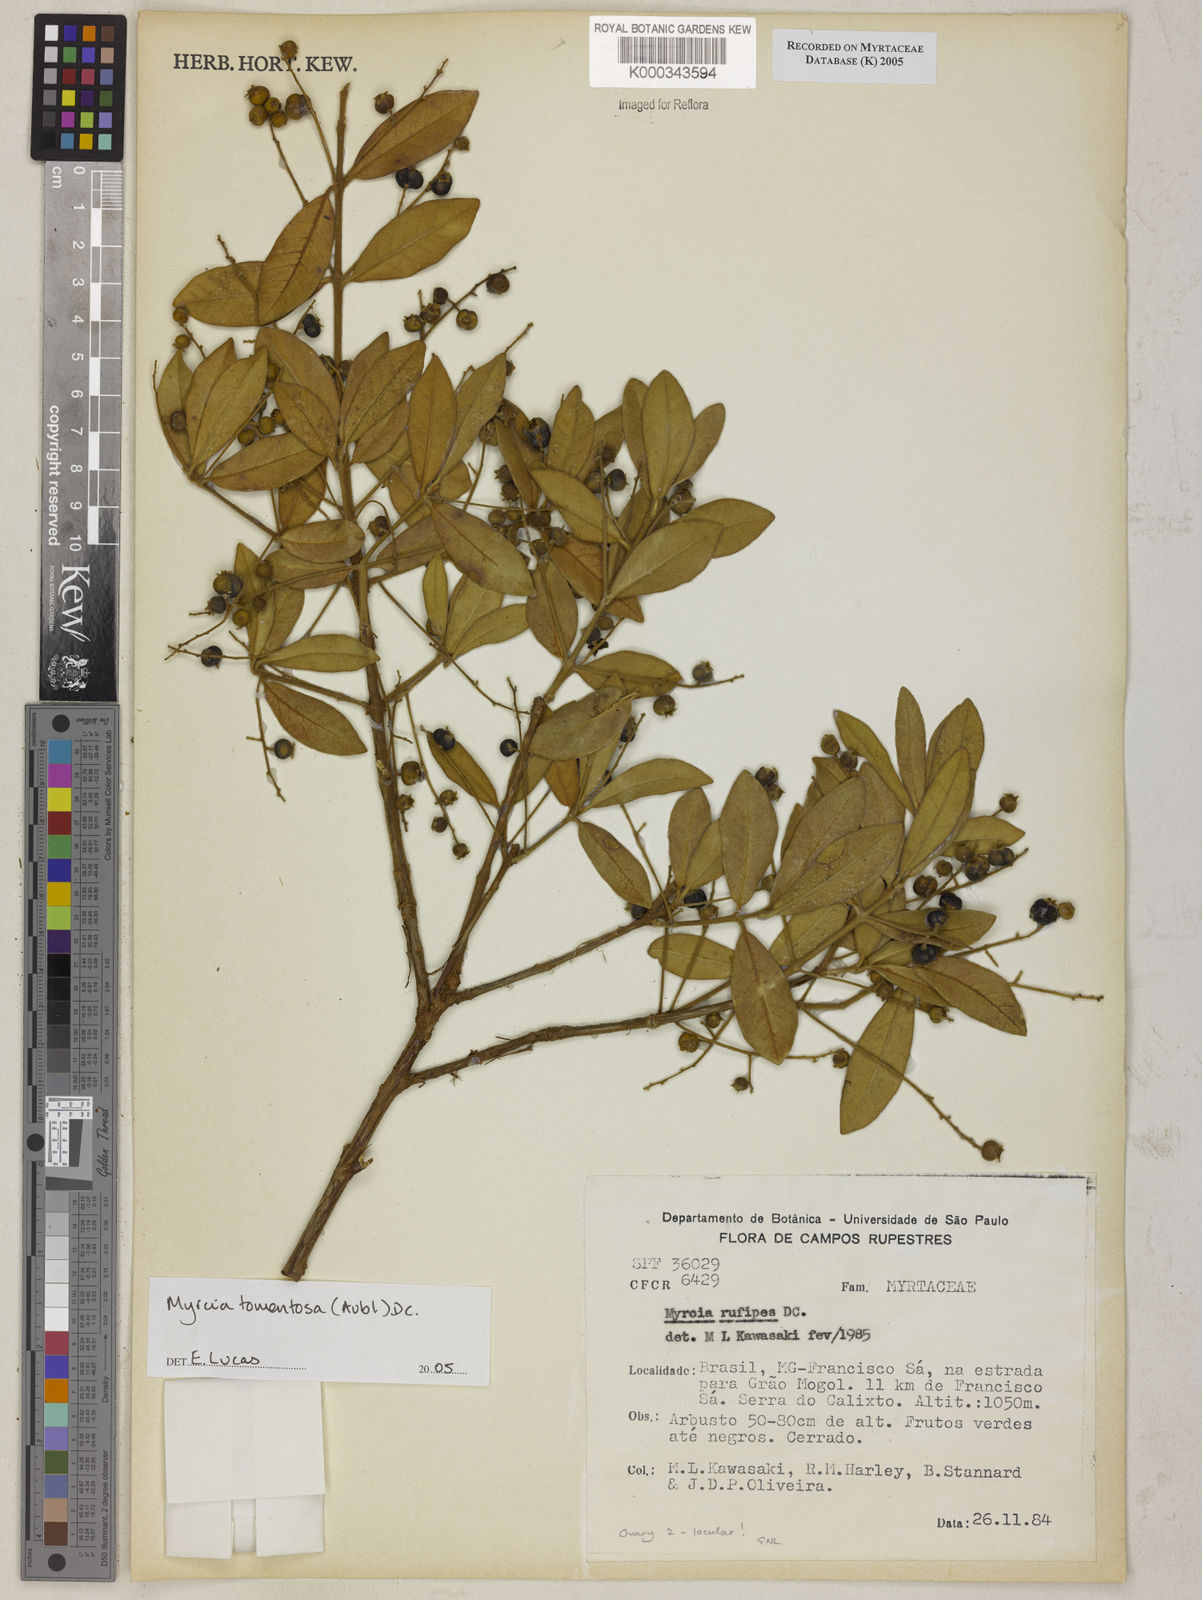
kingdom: Plantae
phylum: Tracheophyta
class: Magnoliopsida
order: Myrtales
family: Myrtaceae
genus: Myrcia
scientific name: Myrcia tomentosa
